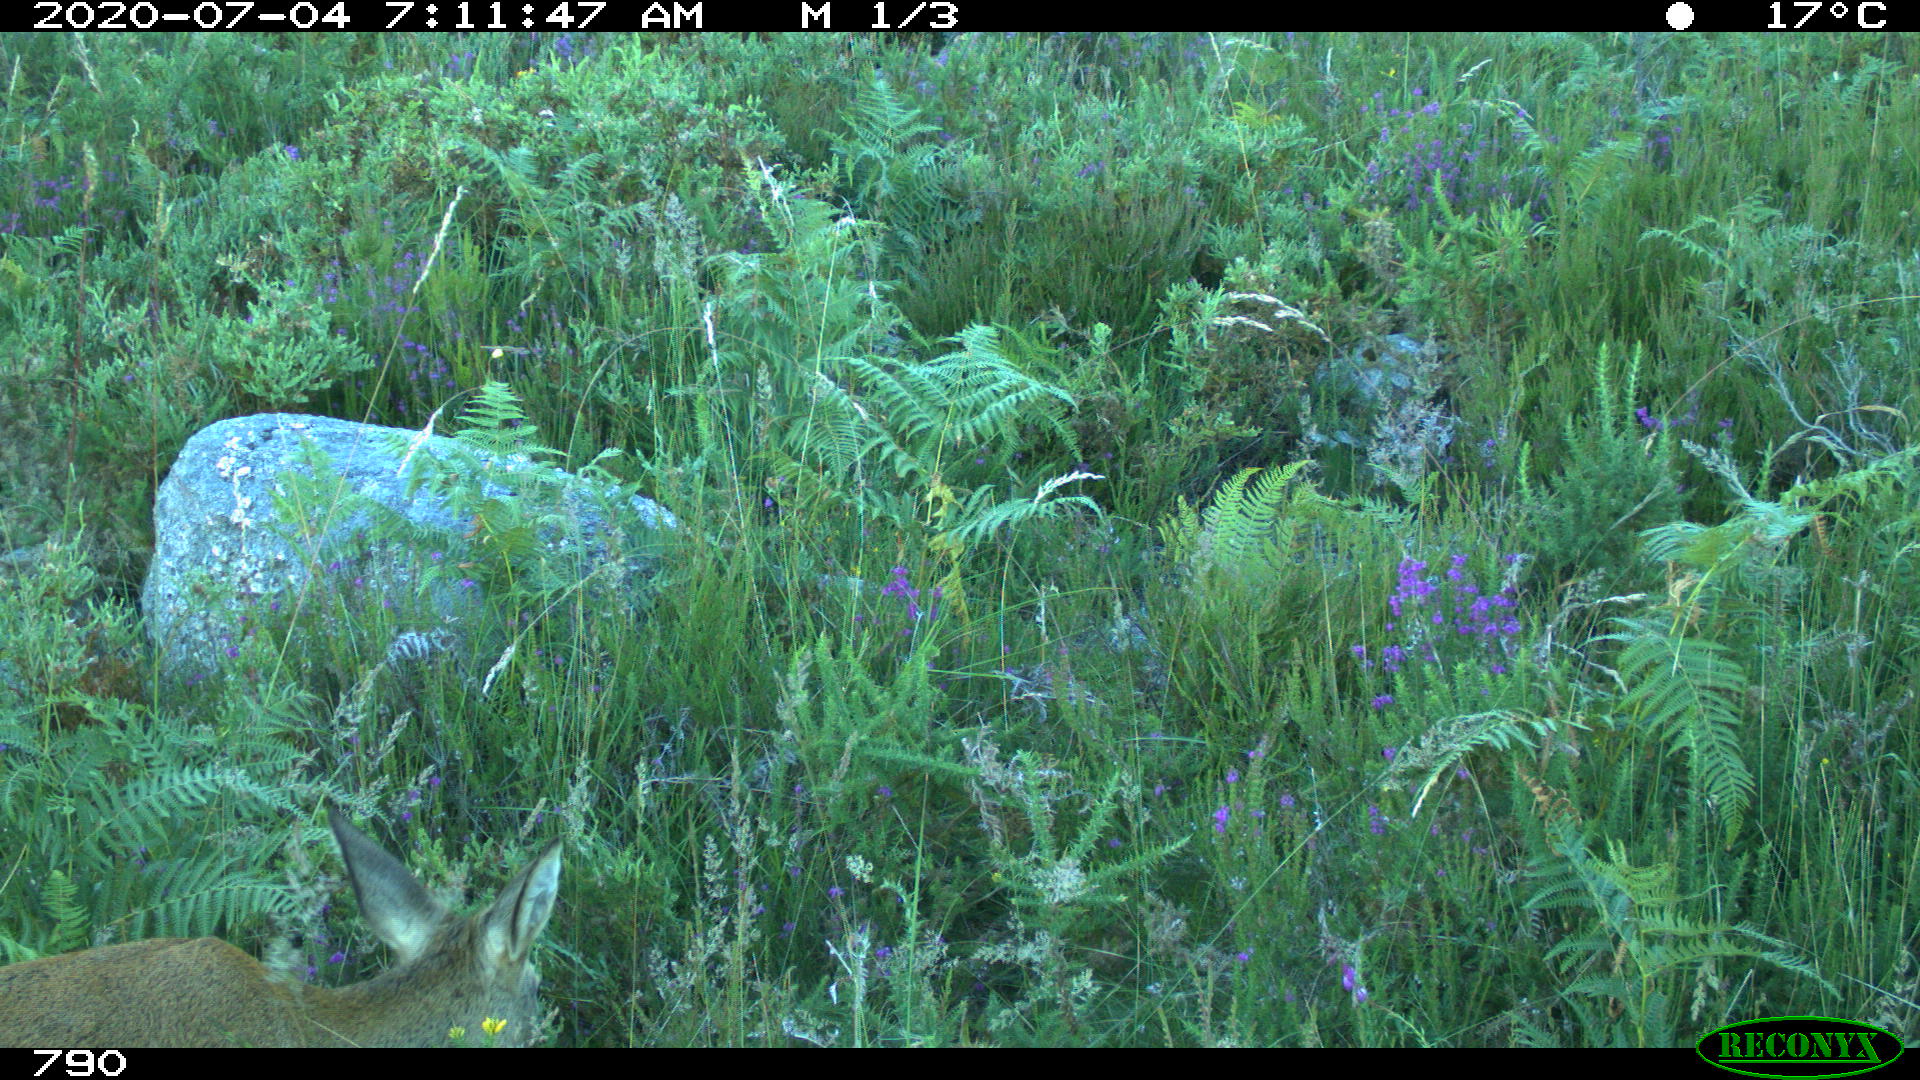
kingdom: Animalia
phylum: Chordata
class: Mammalia
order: Artiodactyla
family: Cervidae
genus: Capreolus
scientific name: Capreolus capreolus
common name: Western roe deer
